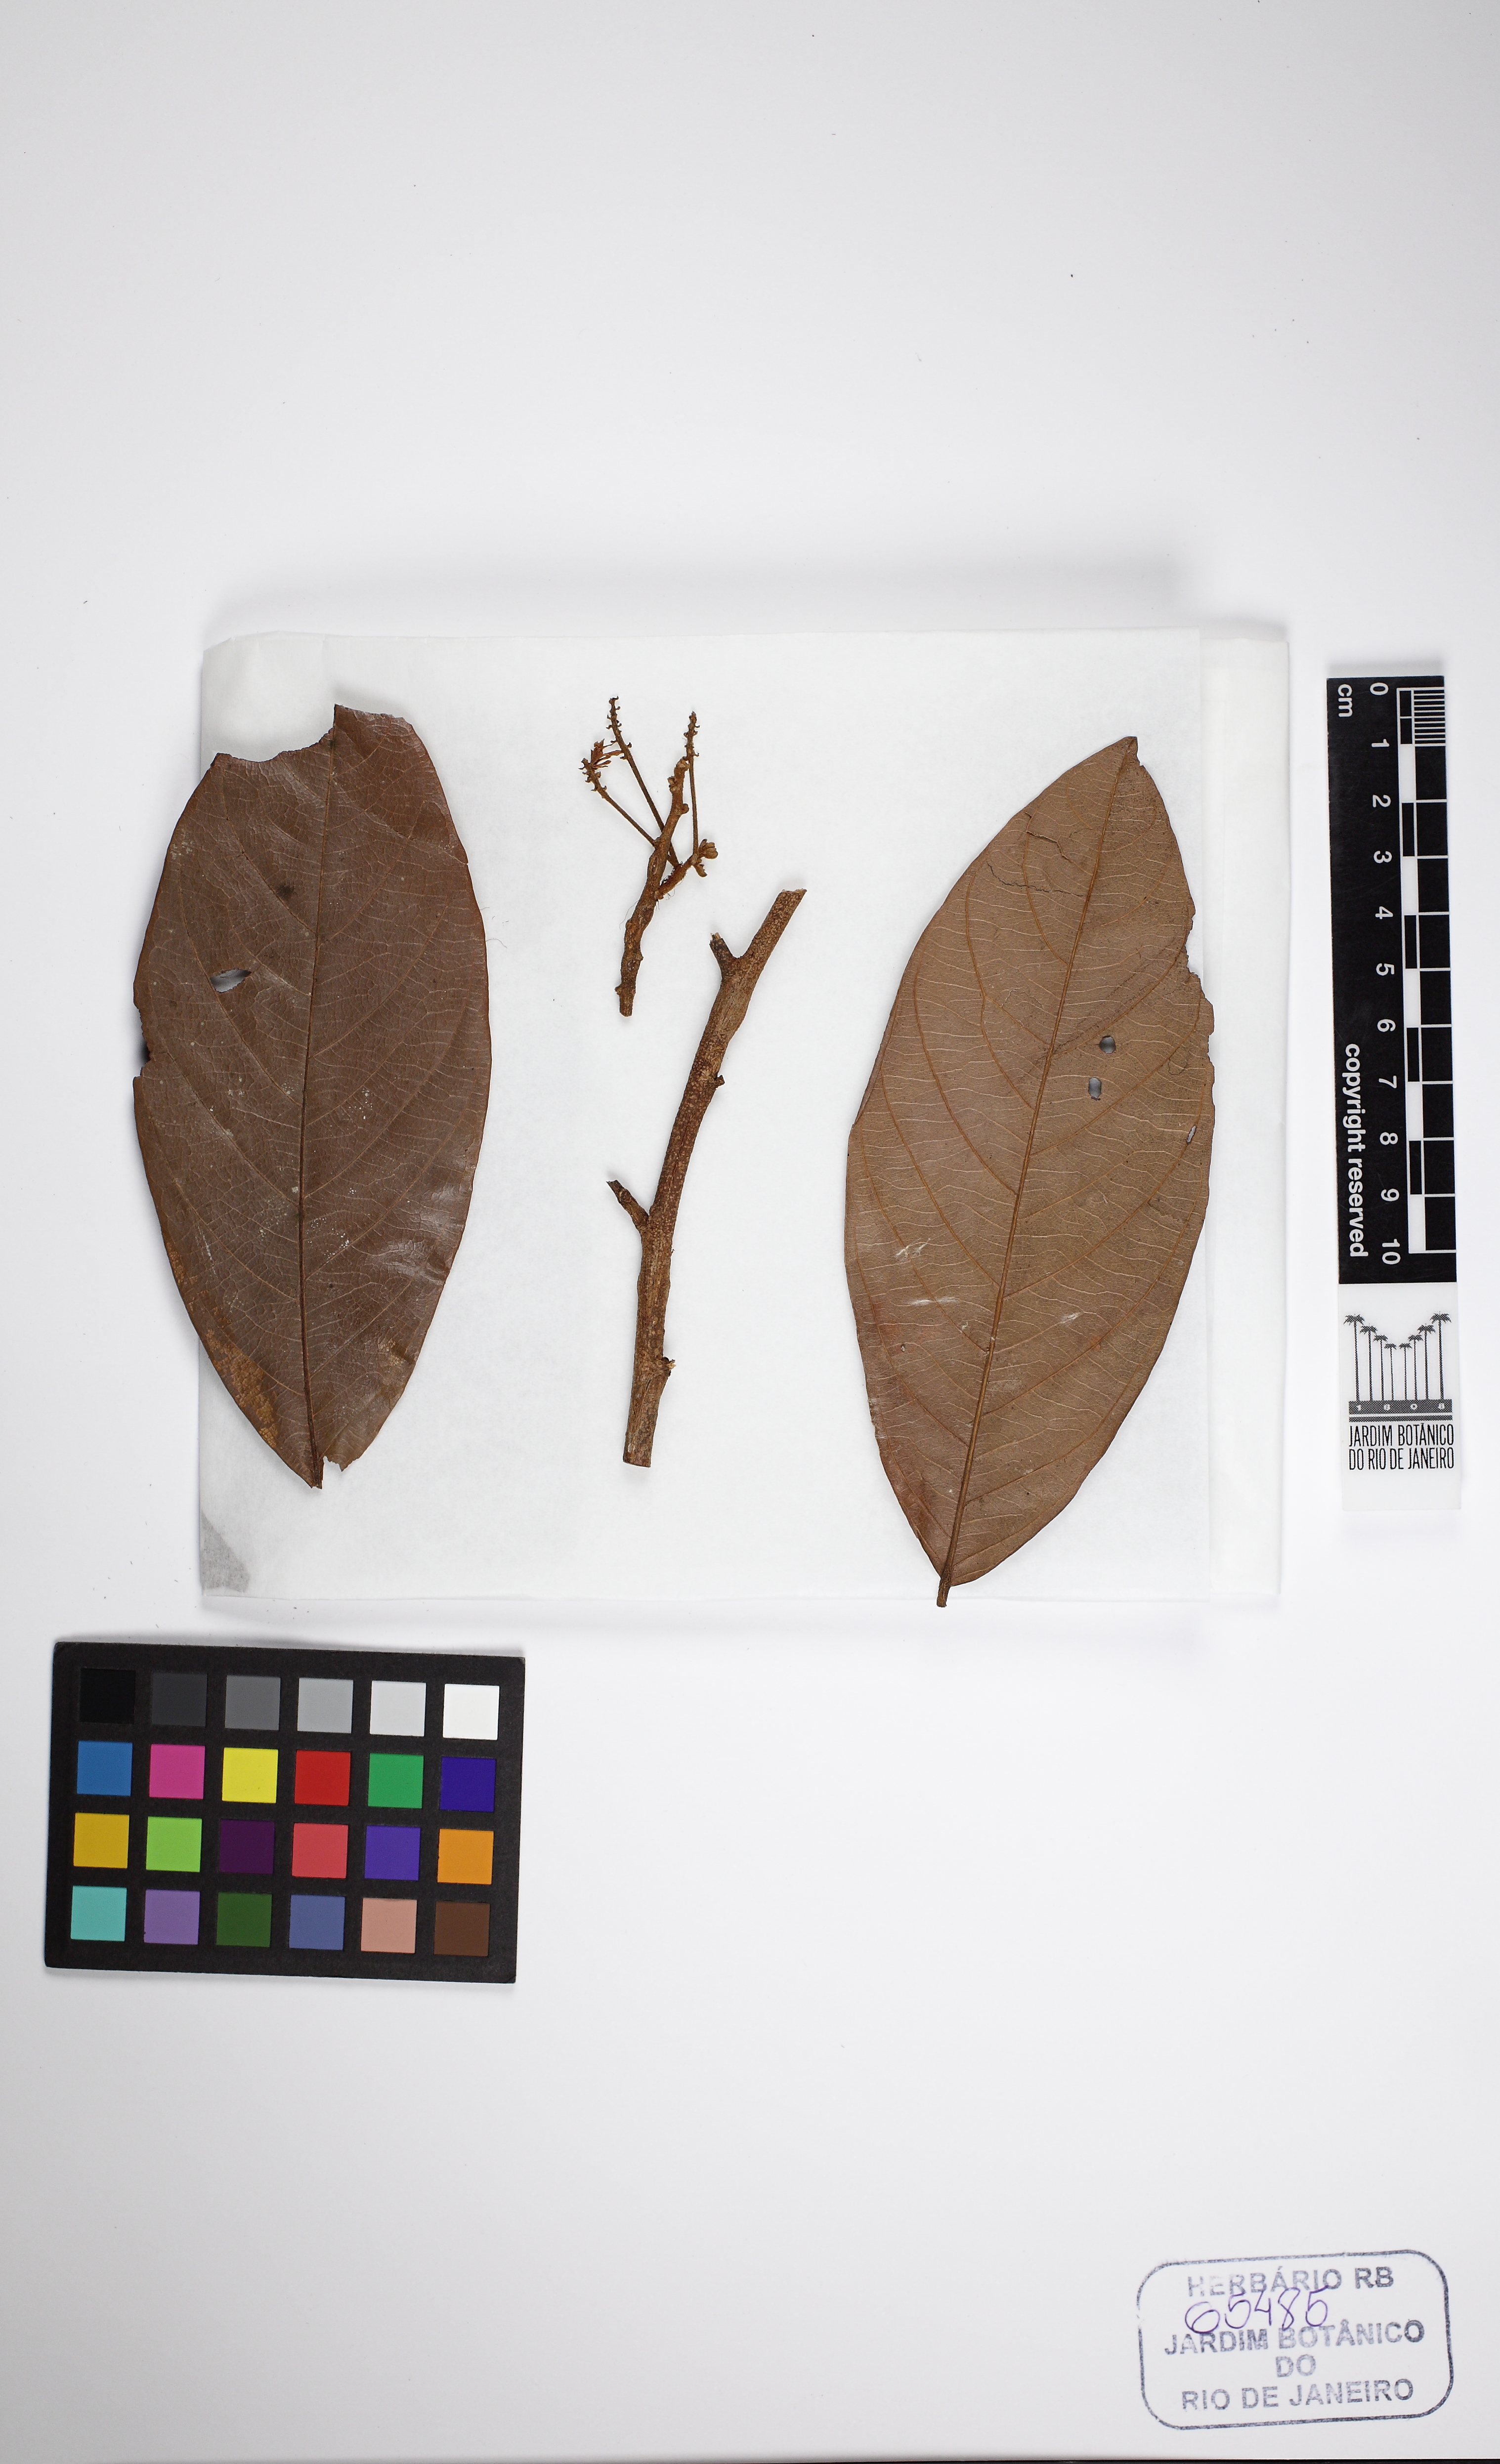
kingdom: Plantae
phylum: Tracheophyta
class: Magnoliopsida
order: Fabales
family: Fabaceae
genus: Inga
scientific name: Inga nobilis
